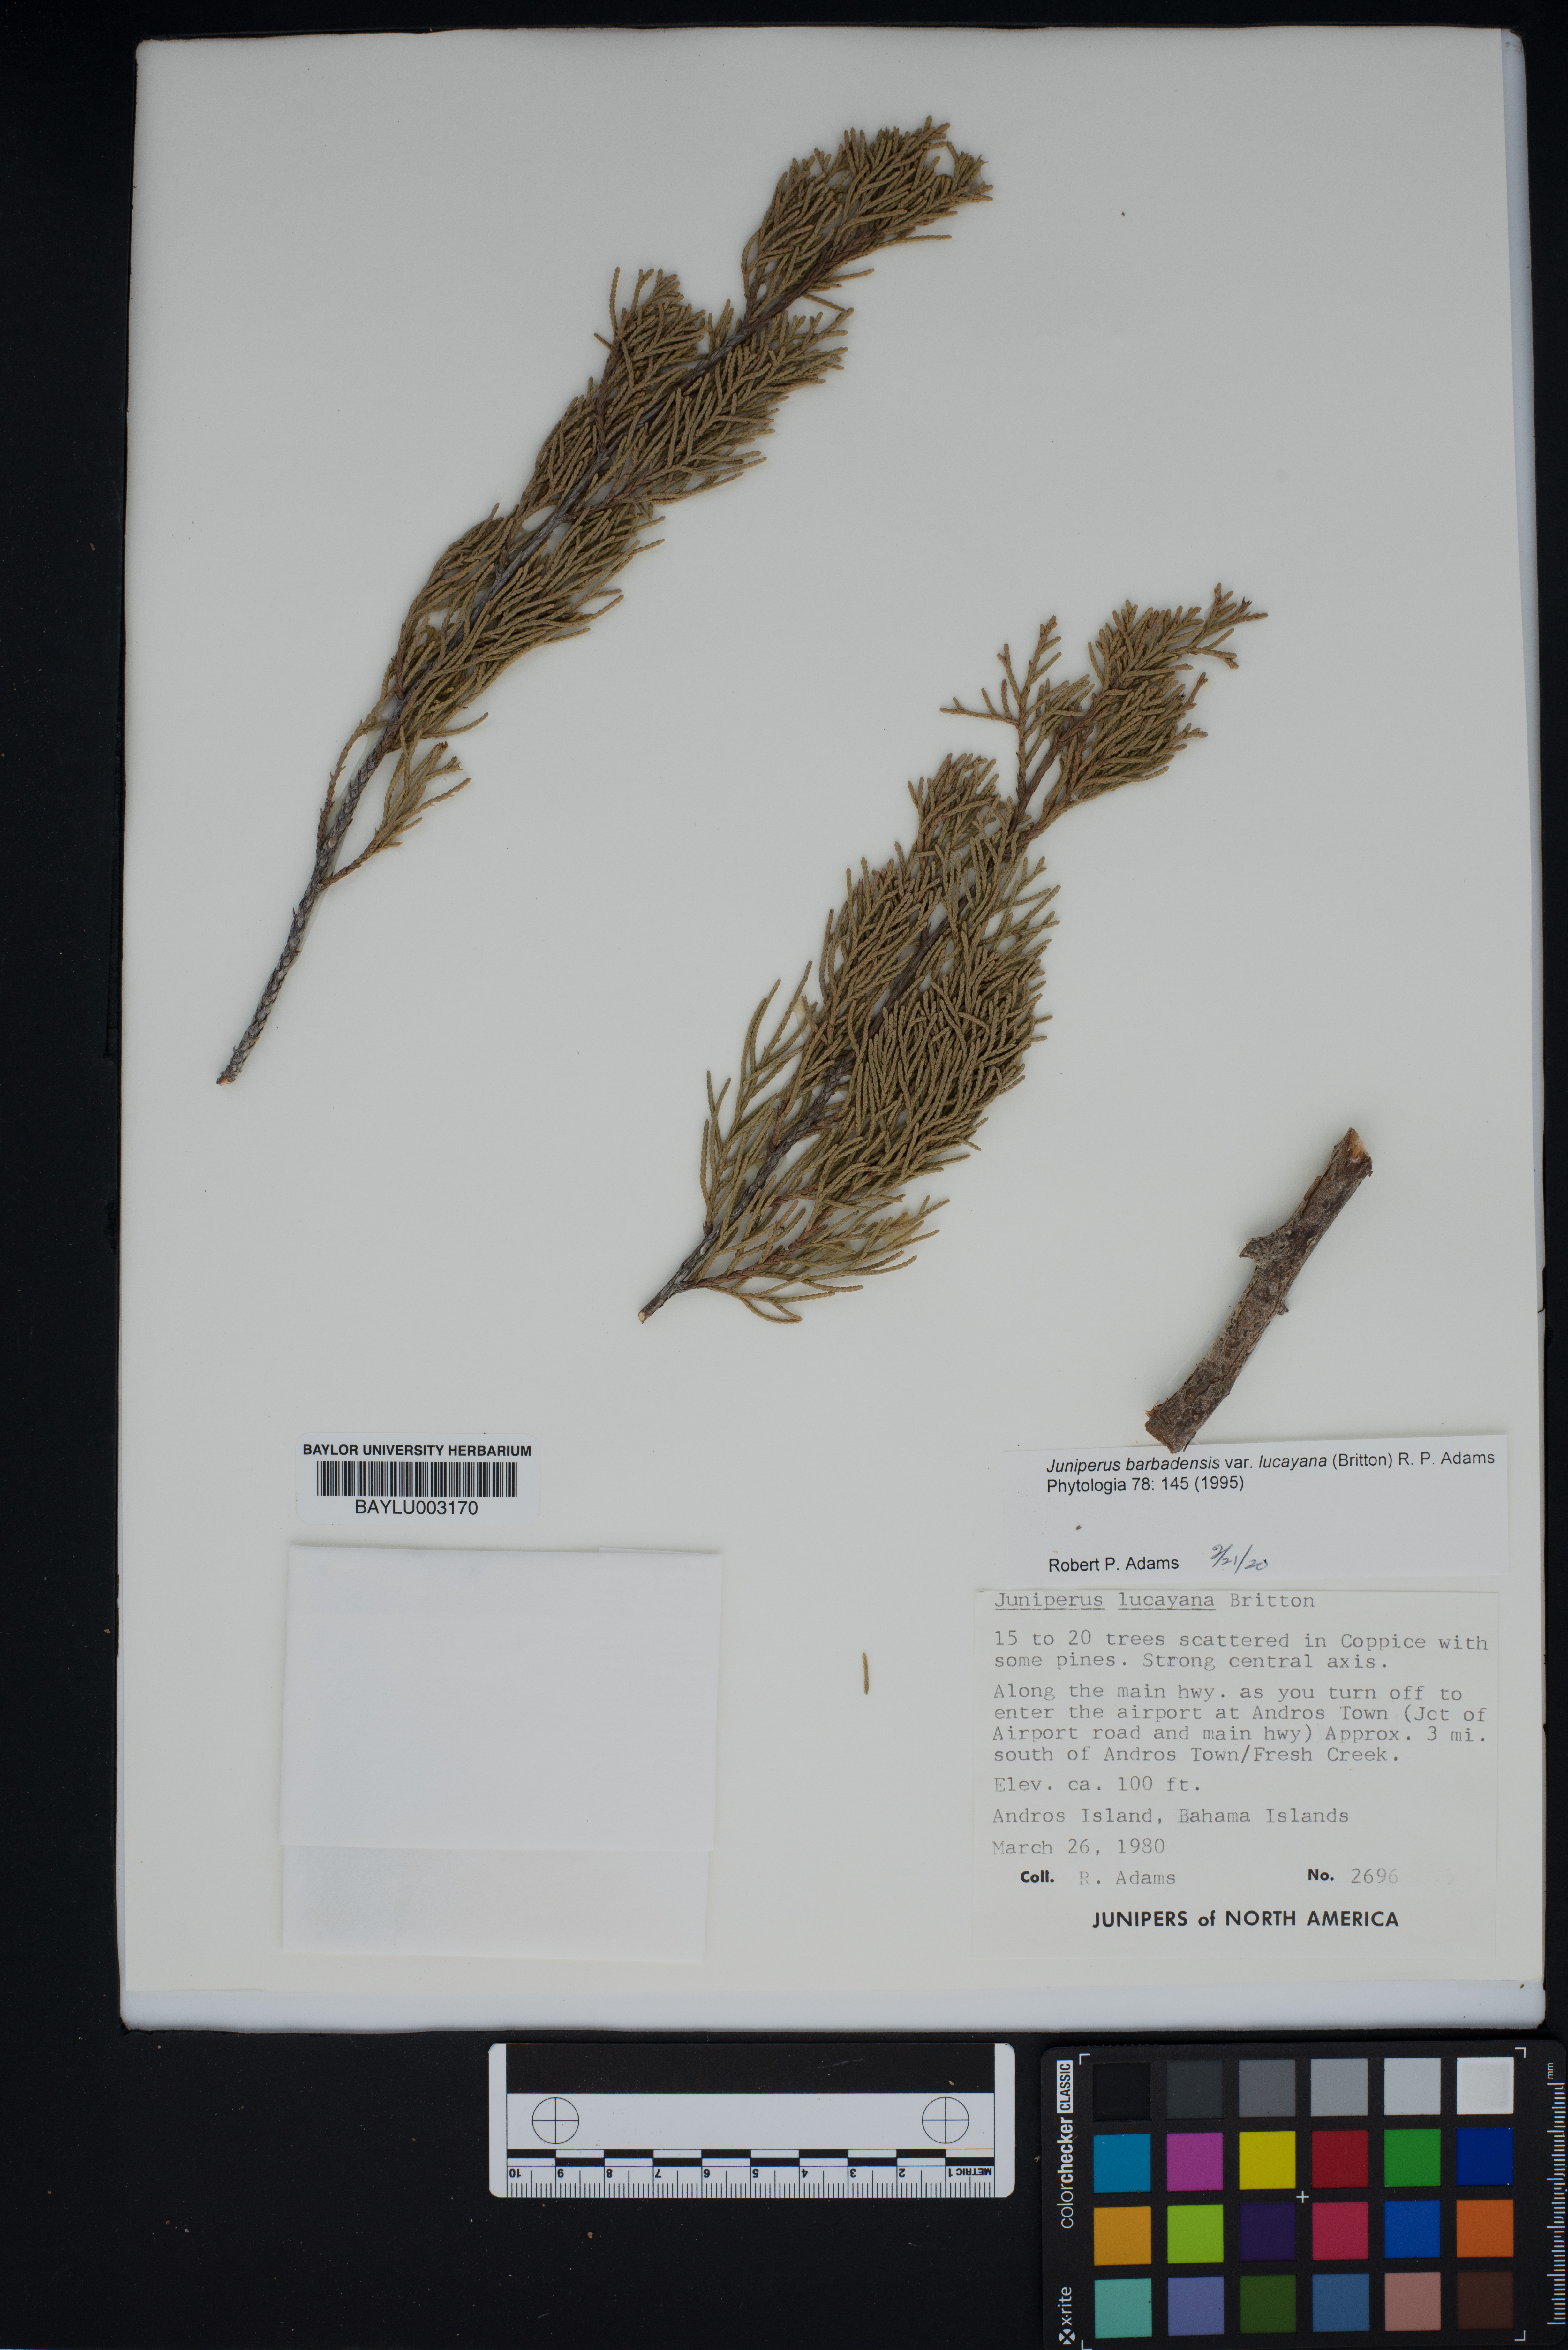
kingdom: Plantae
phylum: Tracheophyta
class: Pinopsida
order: Pinales
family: Cupressaceae
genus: Juniperus
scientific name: Juniperus barbadensis
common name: West indies juniper
